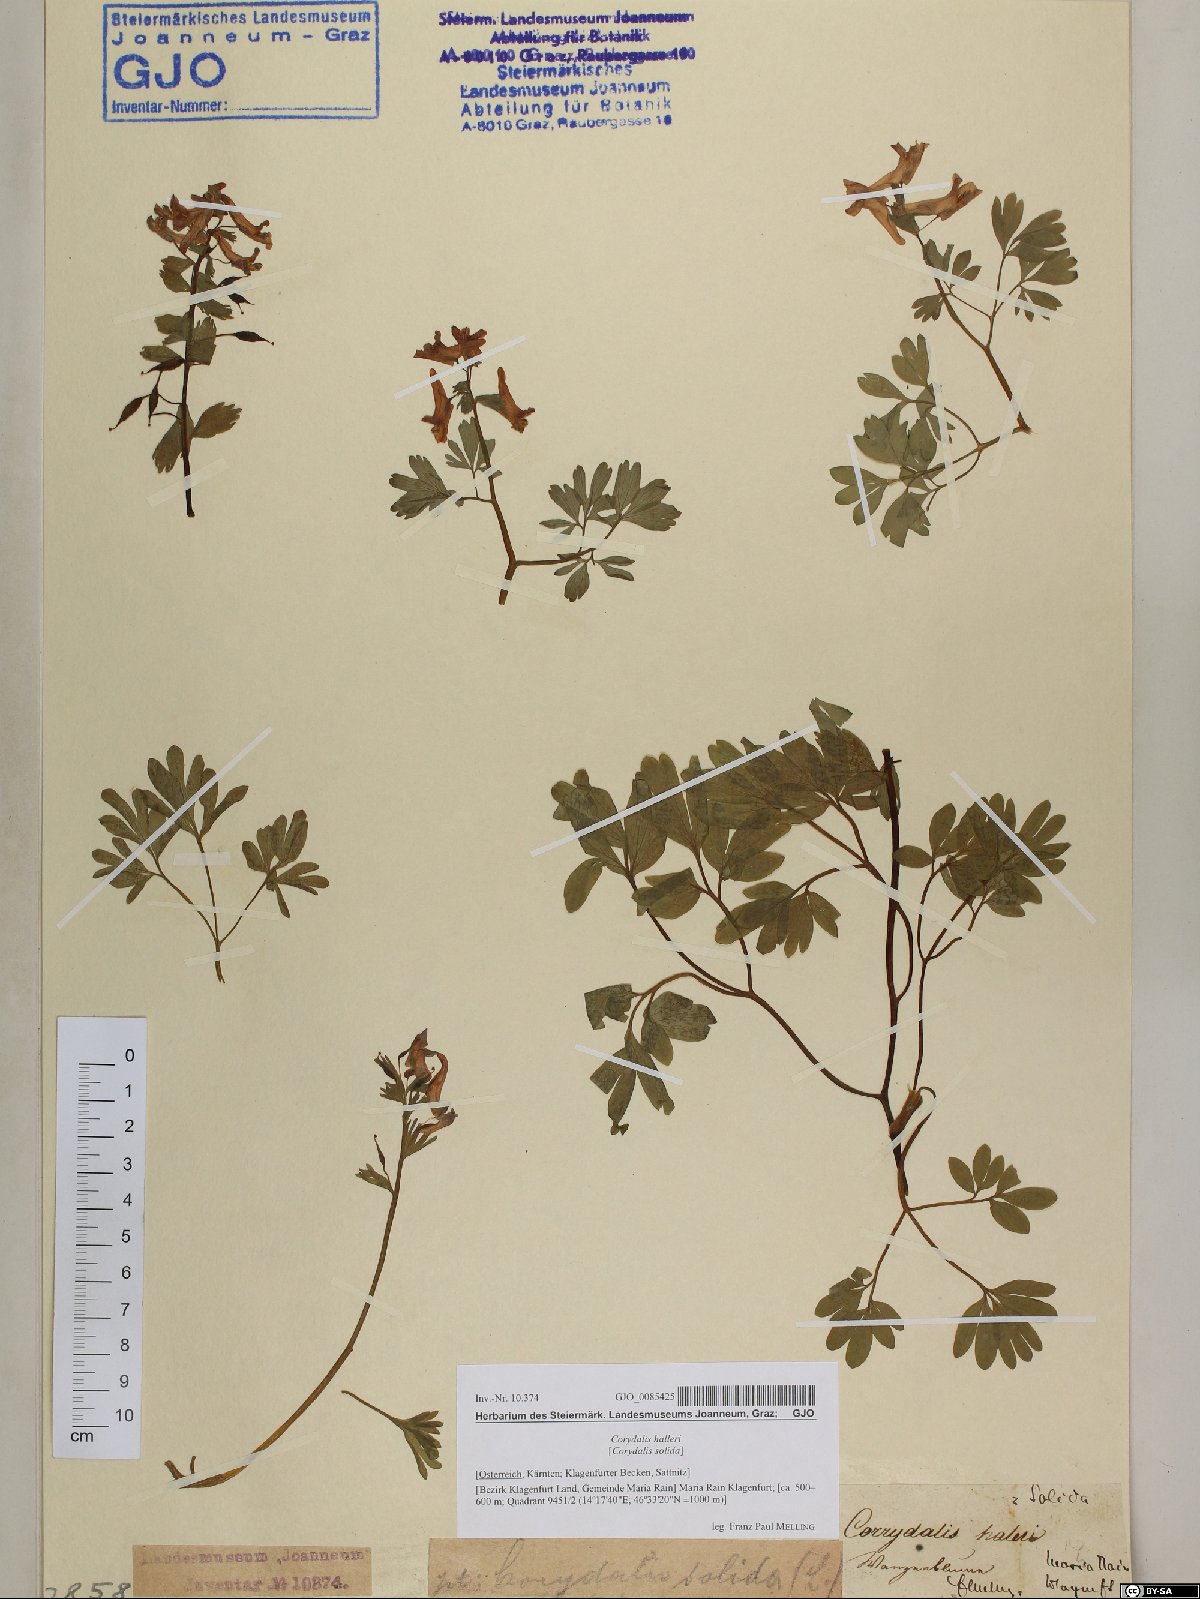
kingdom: Plantae
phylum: Tracheophyta
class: Magnoliopsida
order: Ranunculales
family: Papaveraceae
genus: Corydalis
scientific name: Corydalis solida
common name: Bird-in-a-bush
